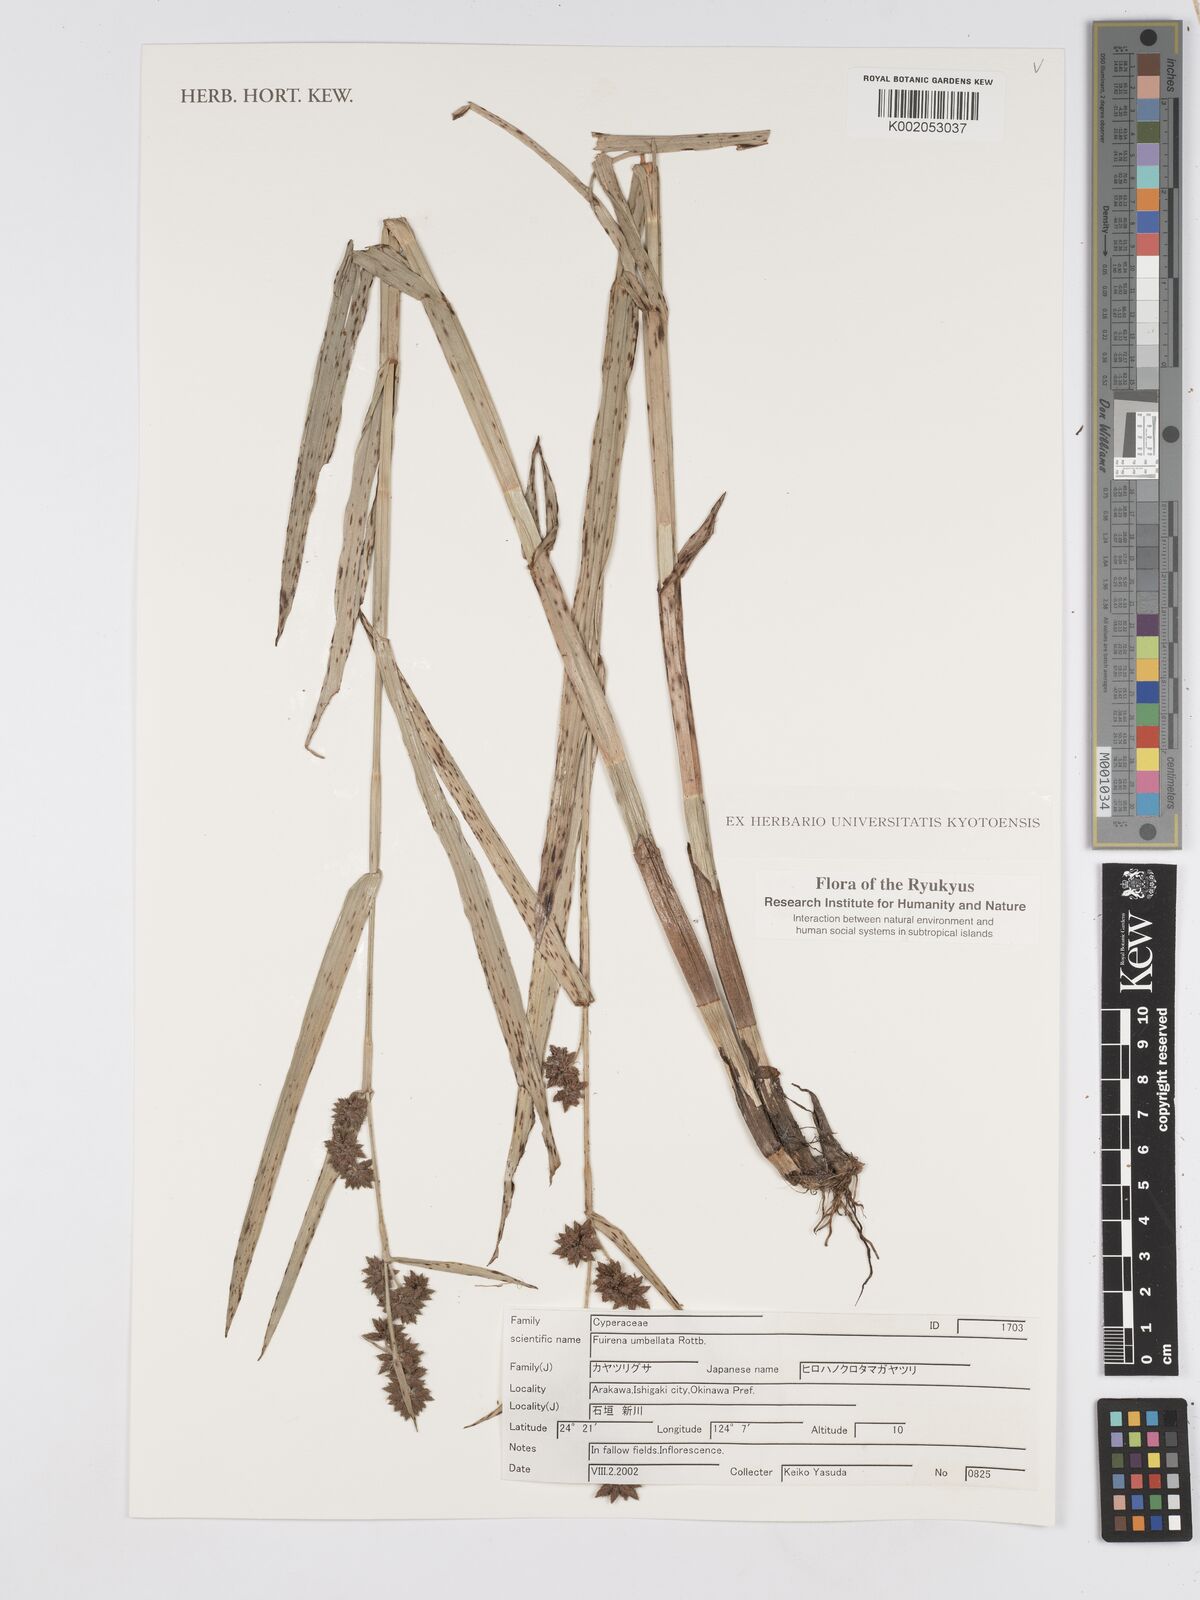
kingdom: Plantae
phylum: Tracheophyta
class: Liliopsida
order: Poales
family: Cyperaceae
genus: Fuirena
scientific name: Fuirena umbellata
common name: Yefen
